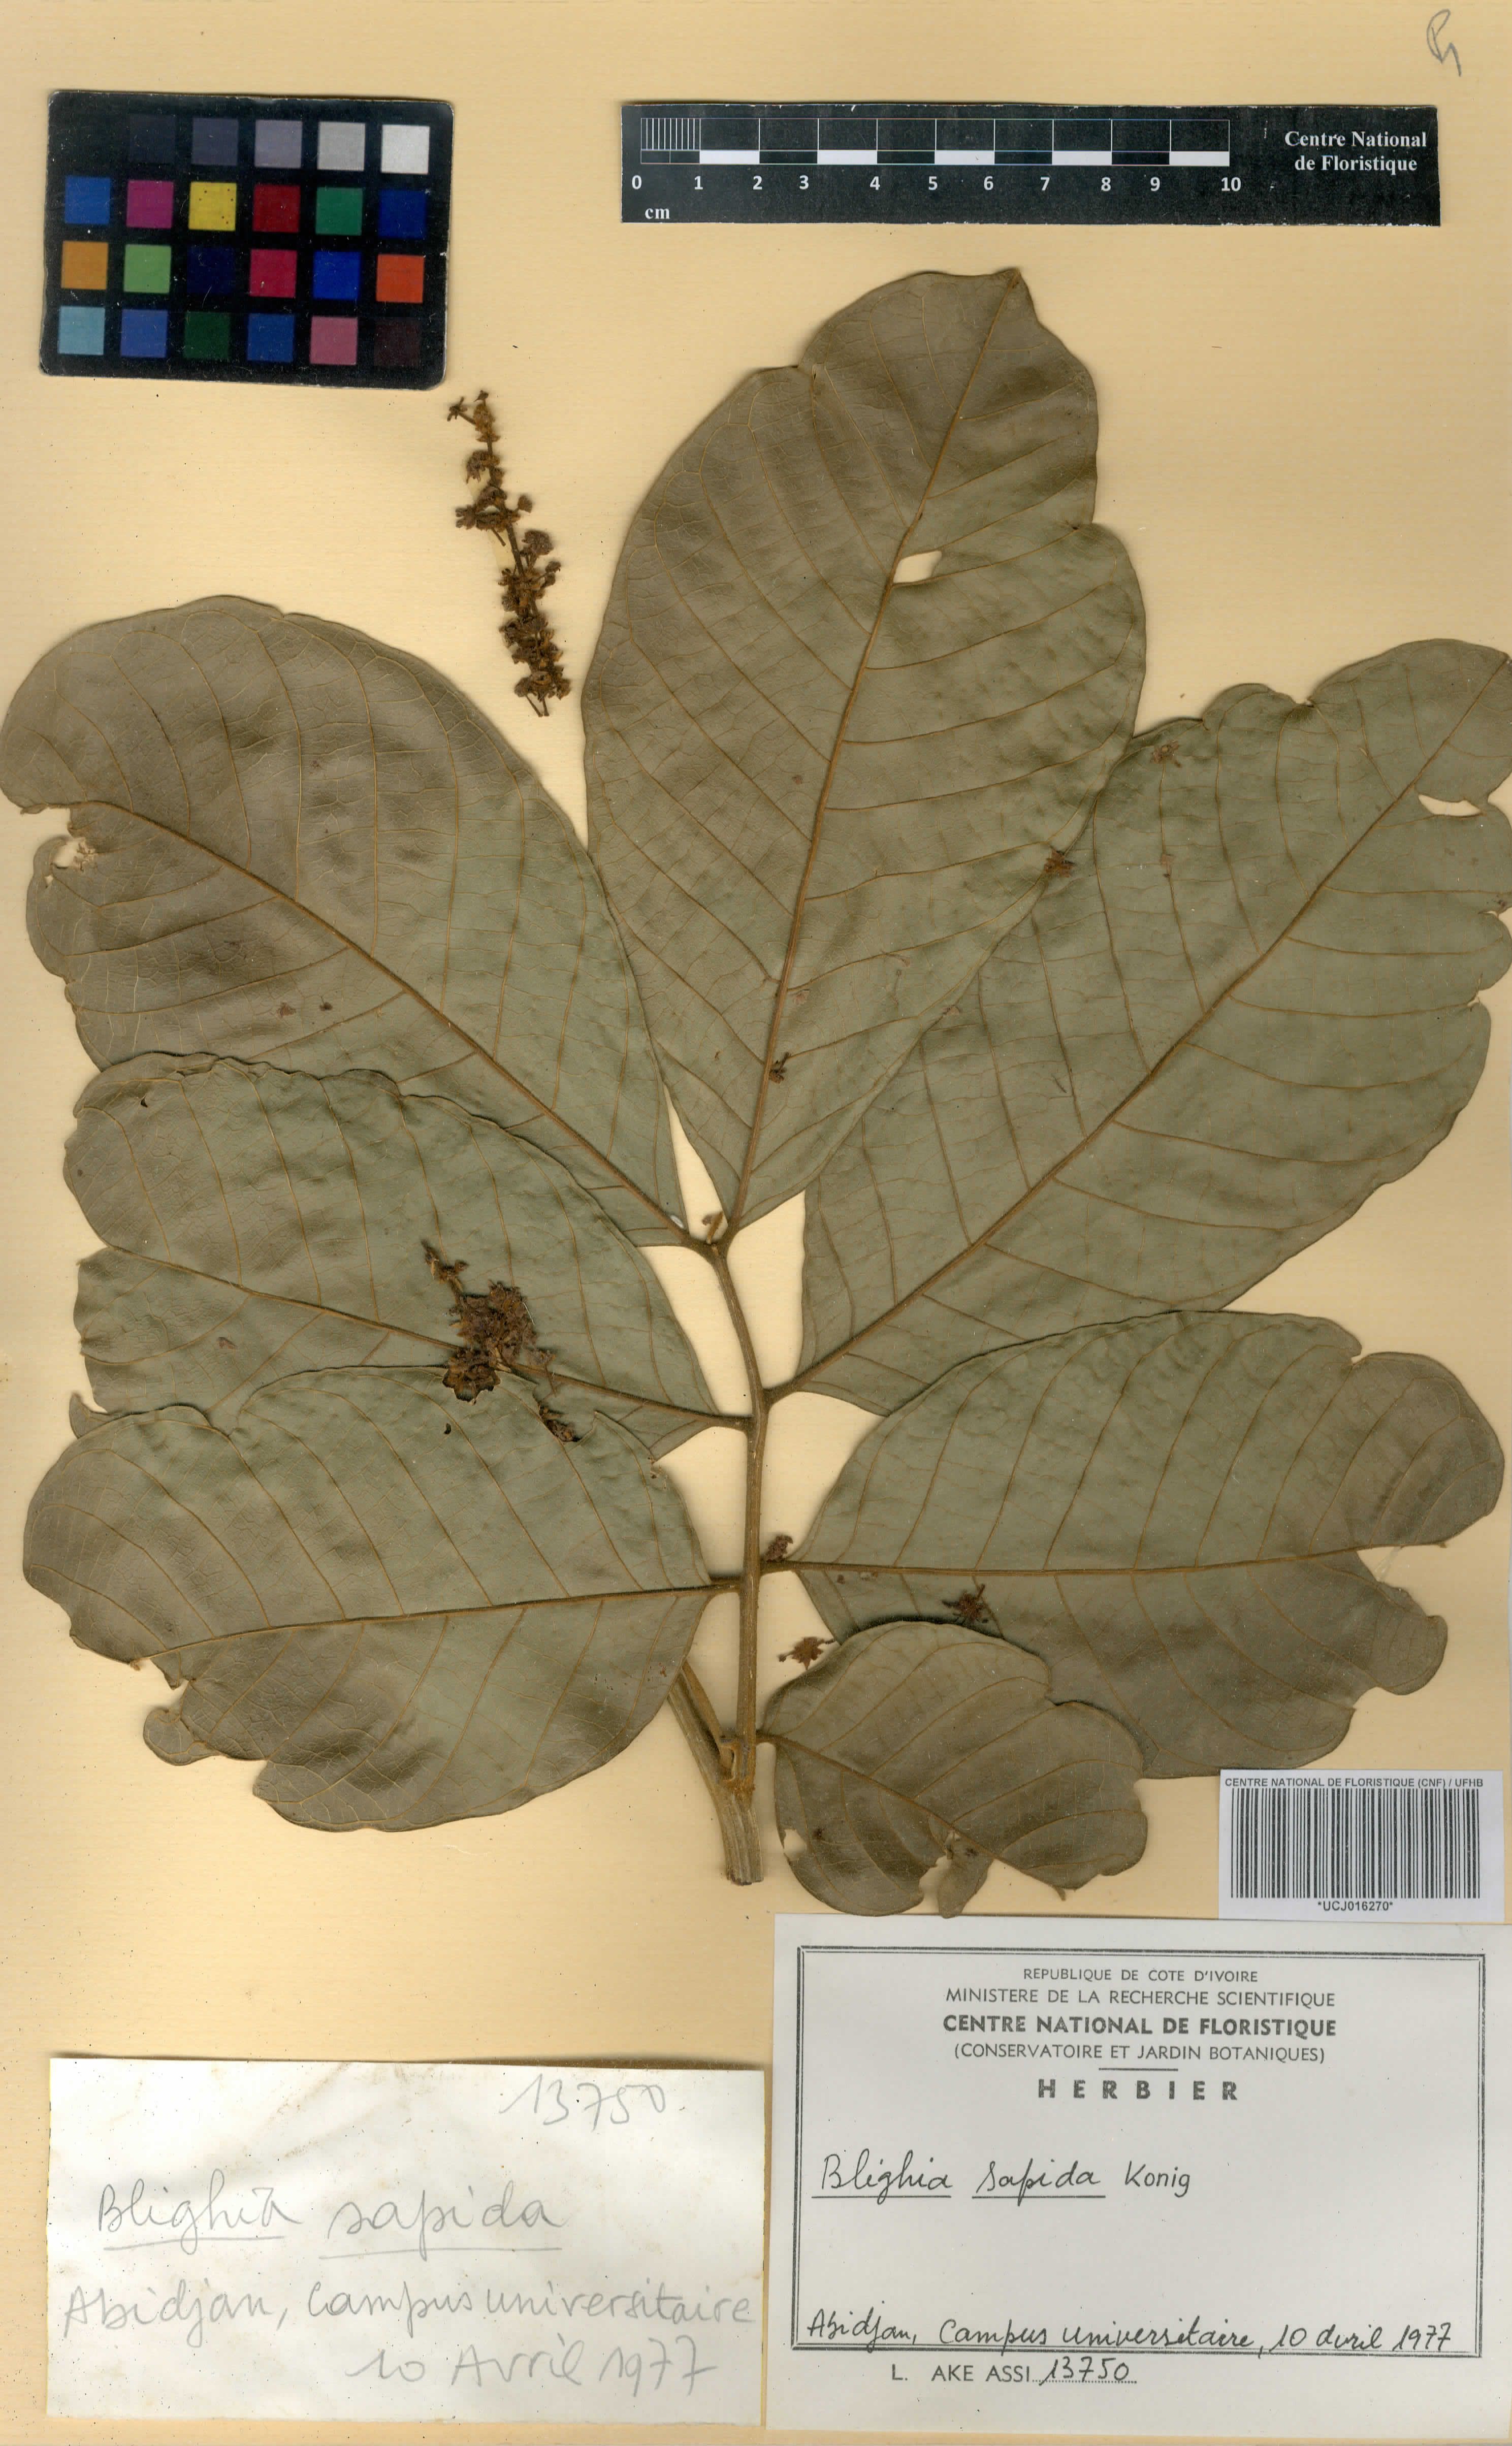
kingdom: Plantae
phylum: Tracheophyta
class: Magnoliopsida
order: Sapindales
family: Sapindaceae
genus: Blighia
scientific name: Blighia sapida
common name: Akee
